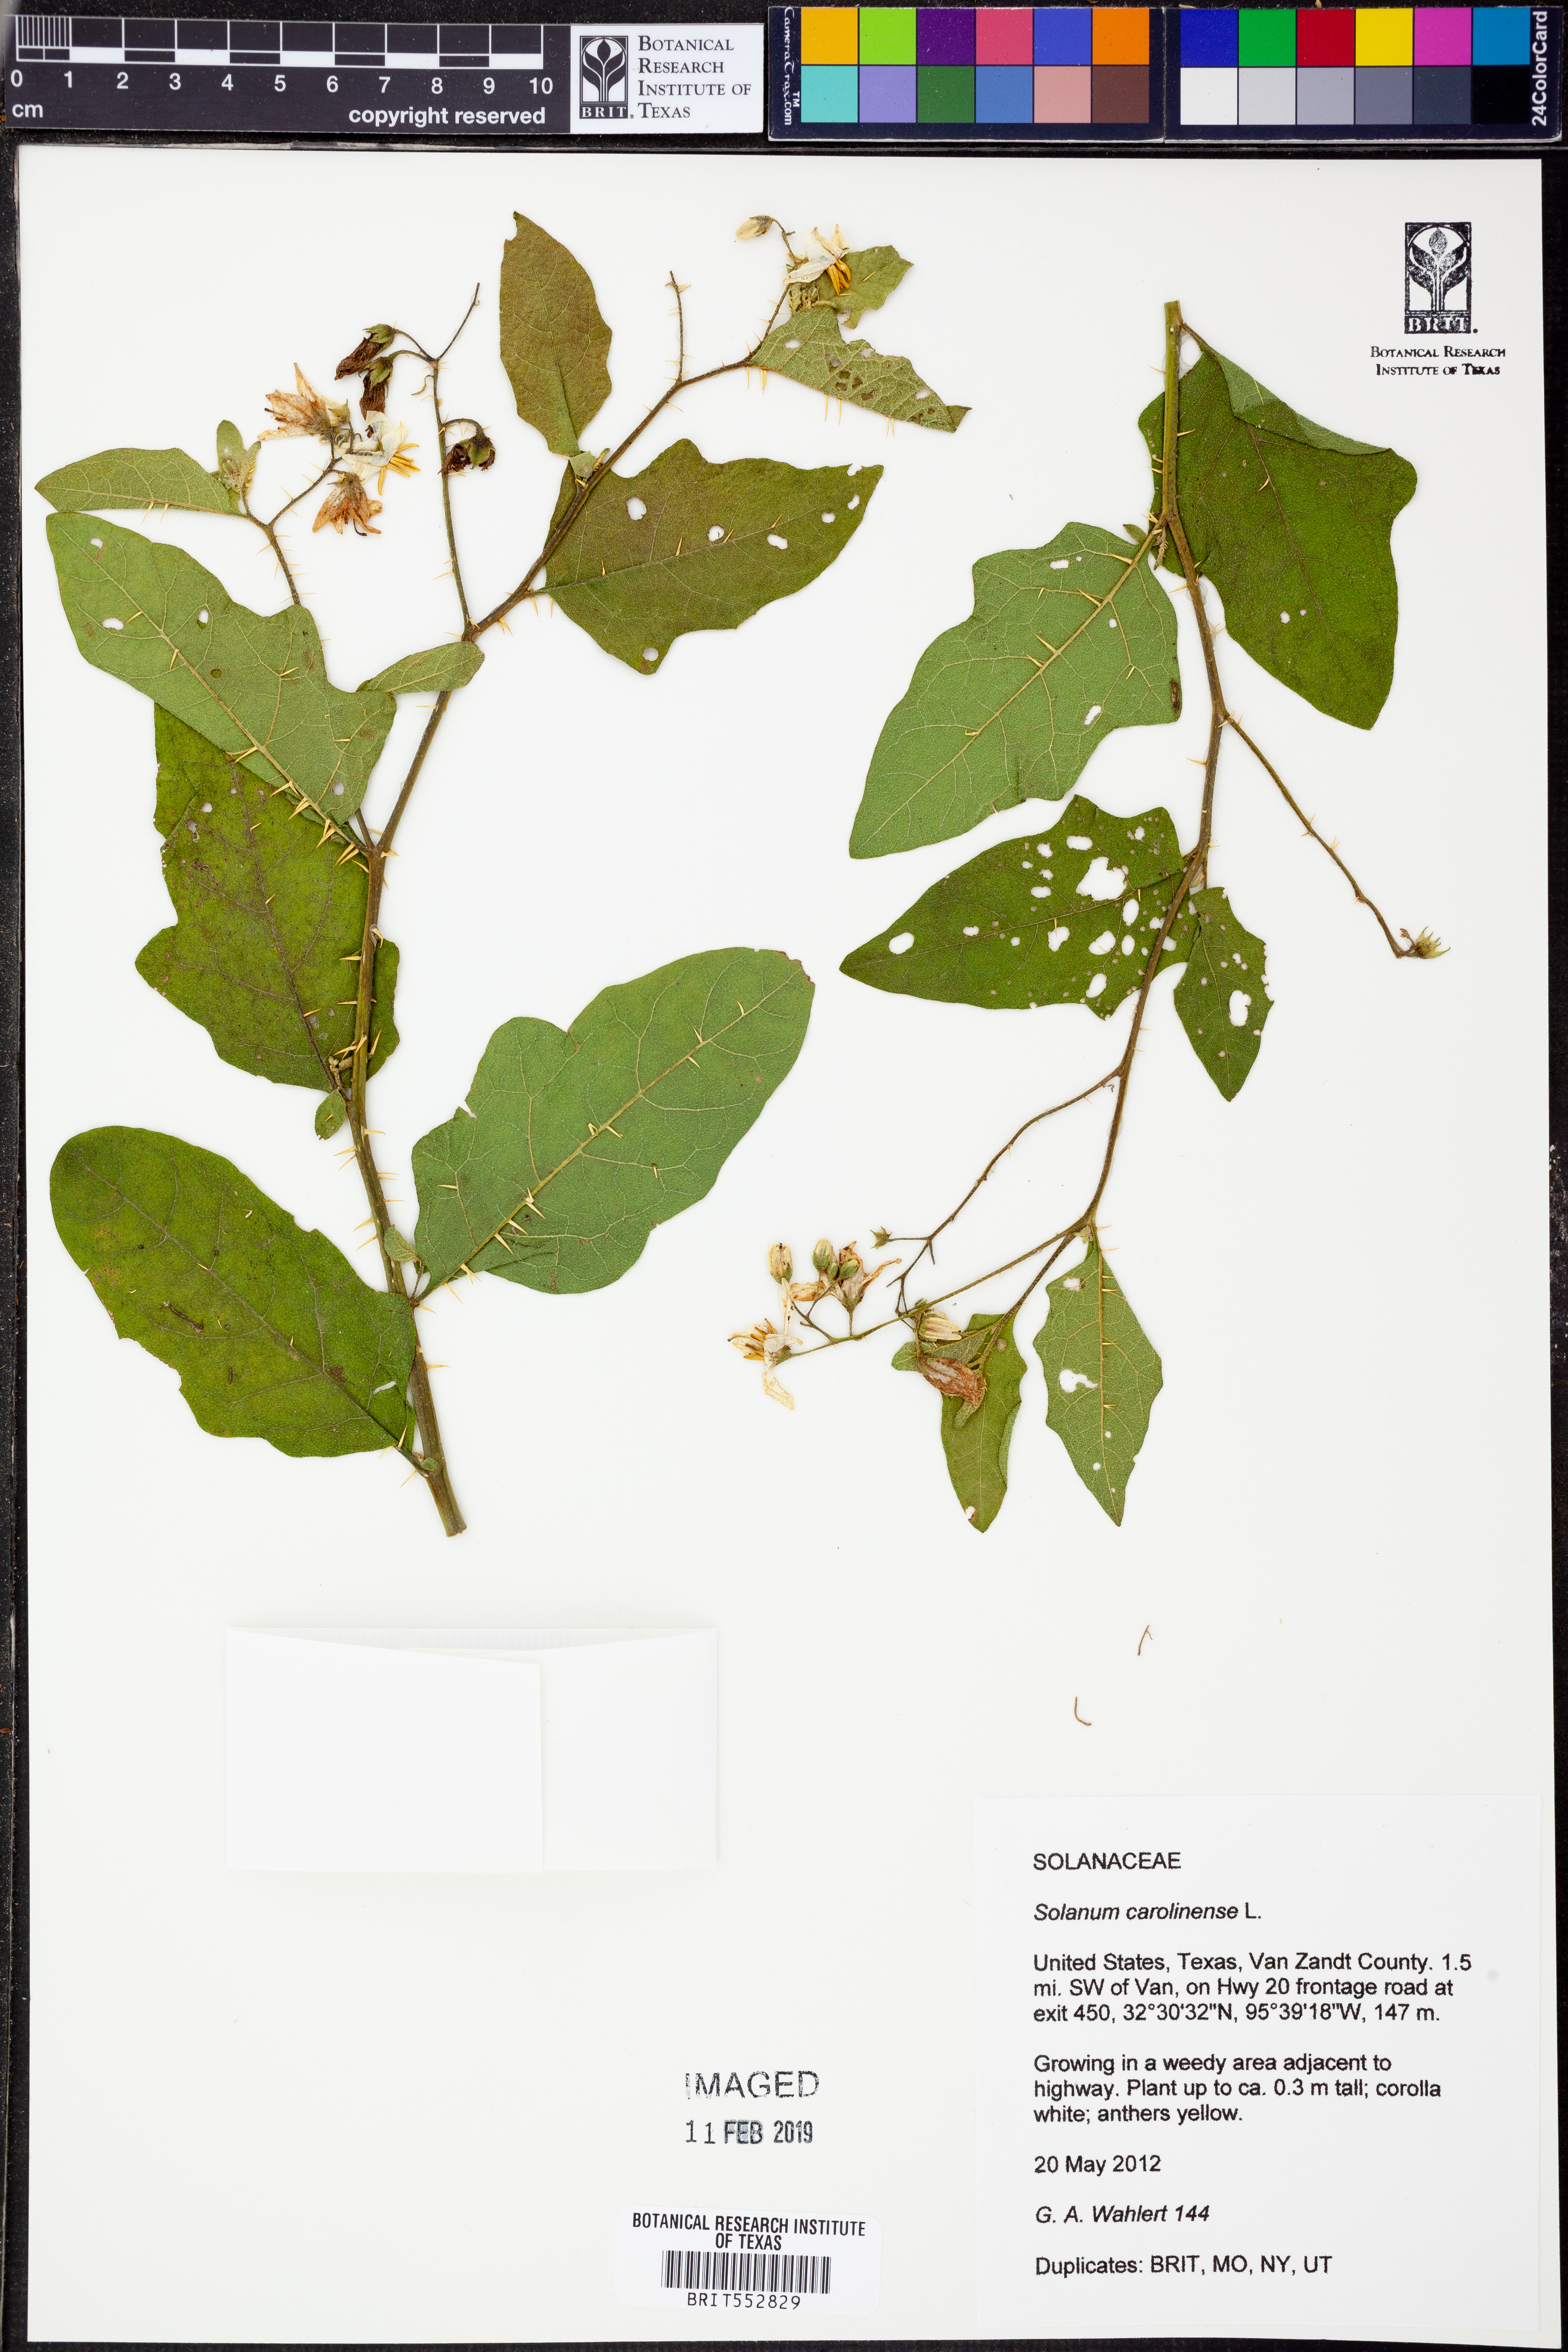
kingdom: Plantae
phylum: Tracheophyta
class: Magnoliopsida
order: Solanales
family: Solanaceae
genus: Solanum
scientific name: Solanum carolinense
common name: Horse-nettle
